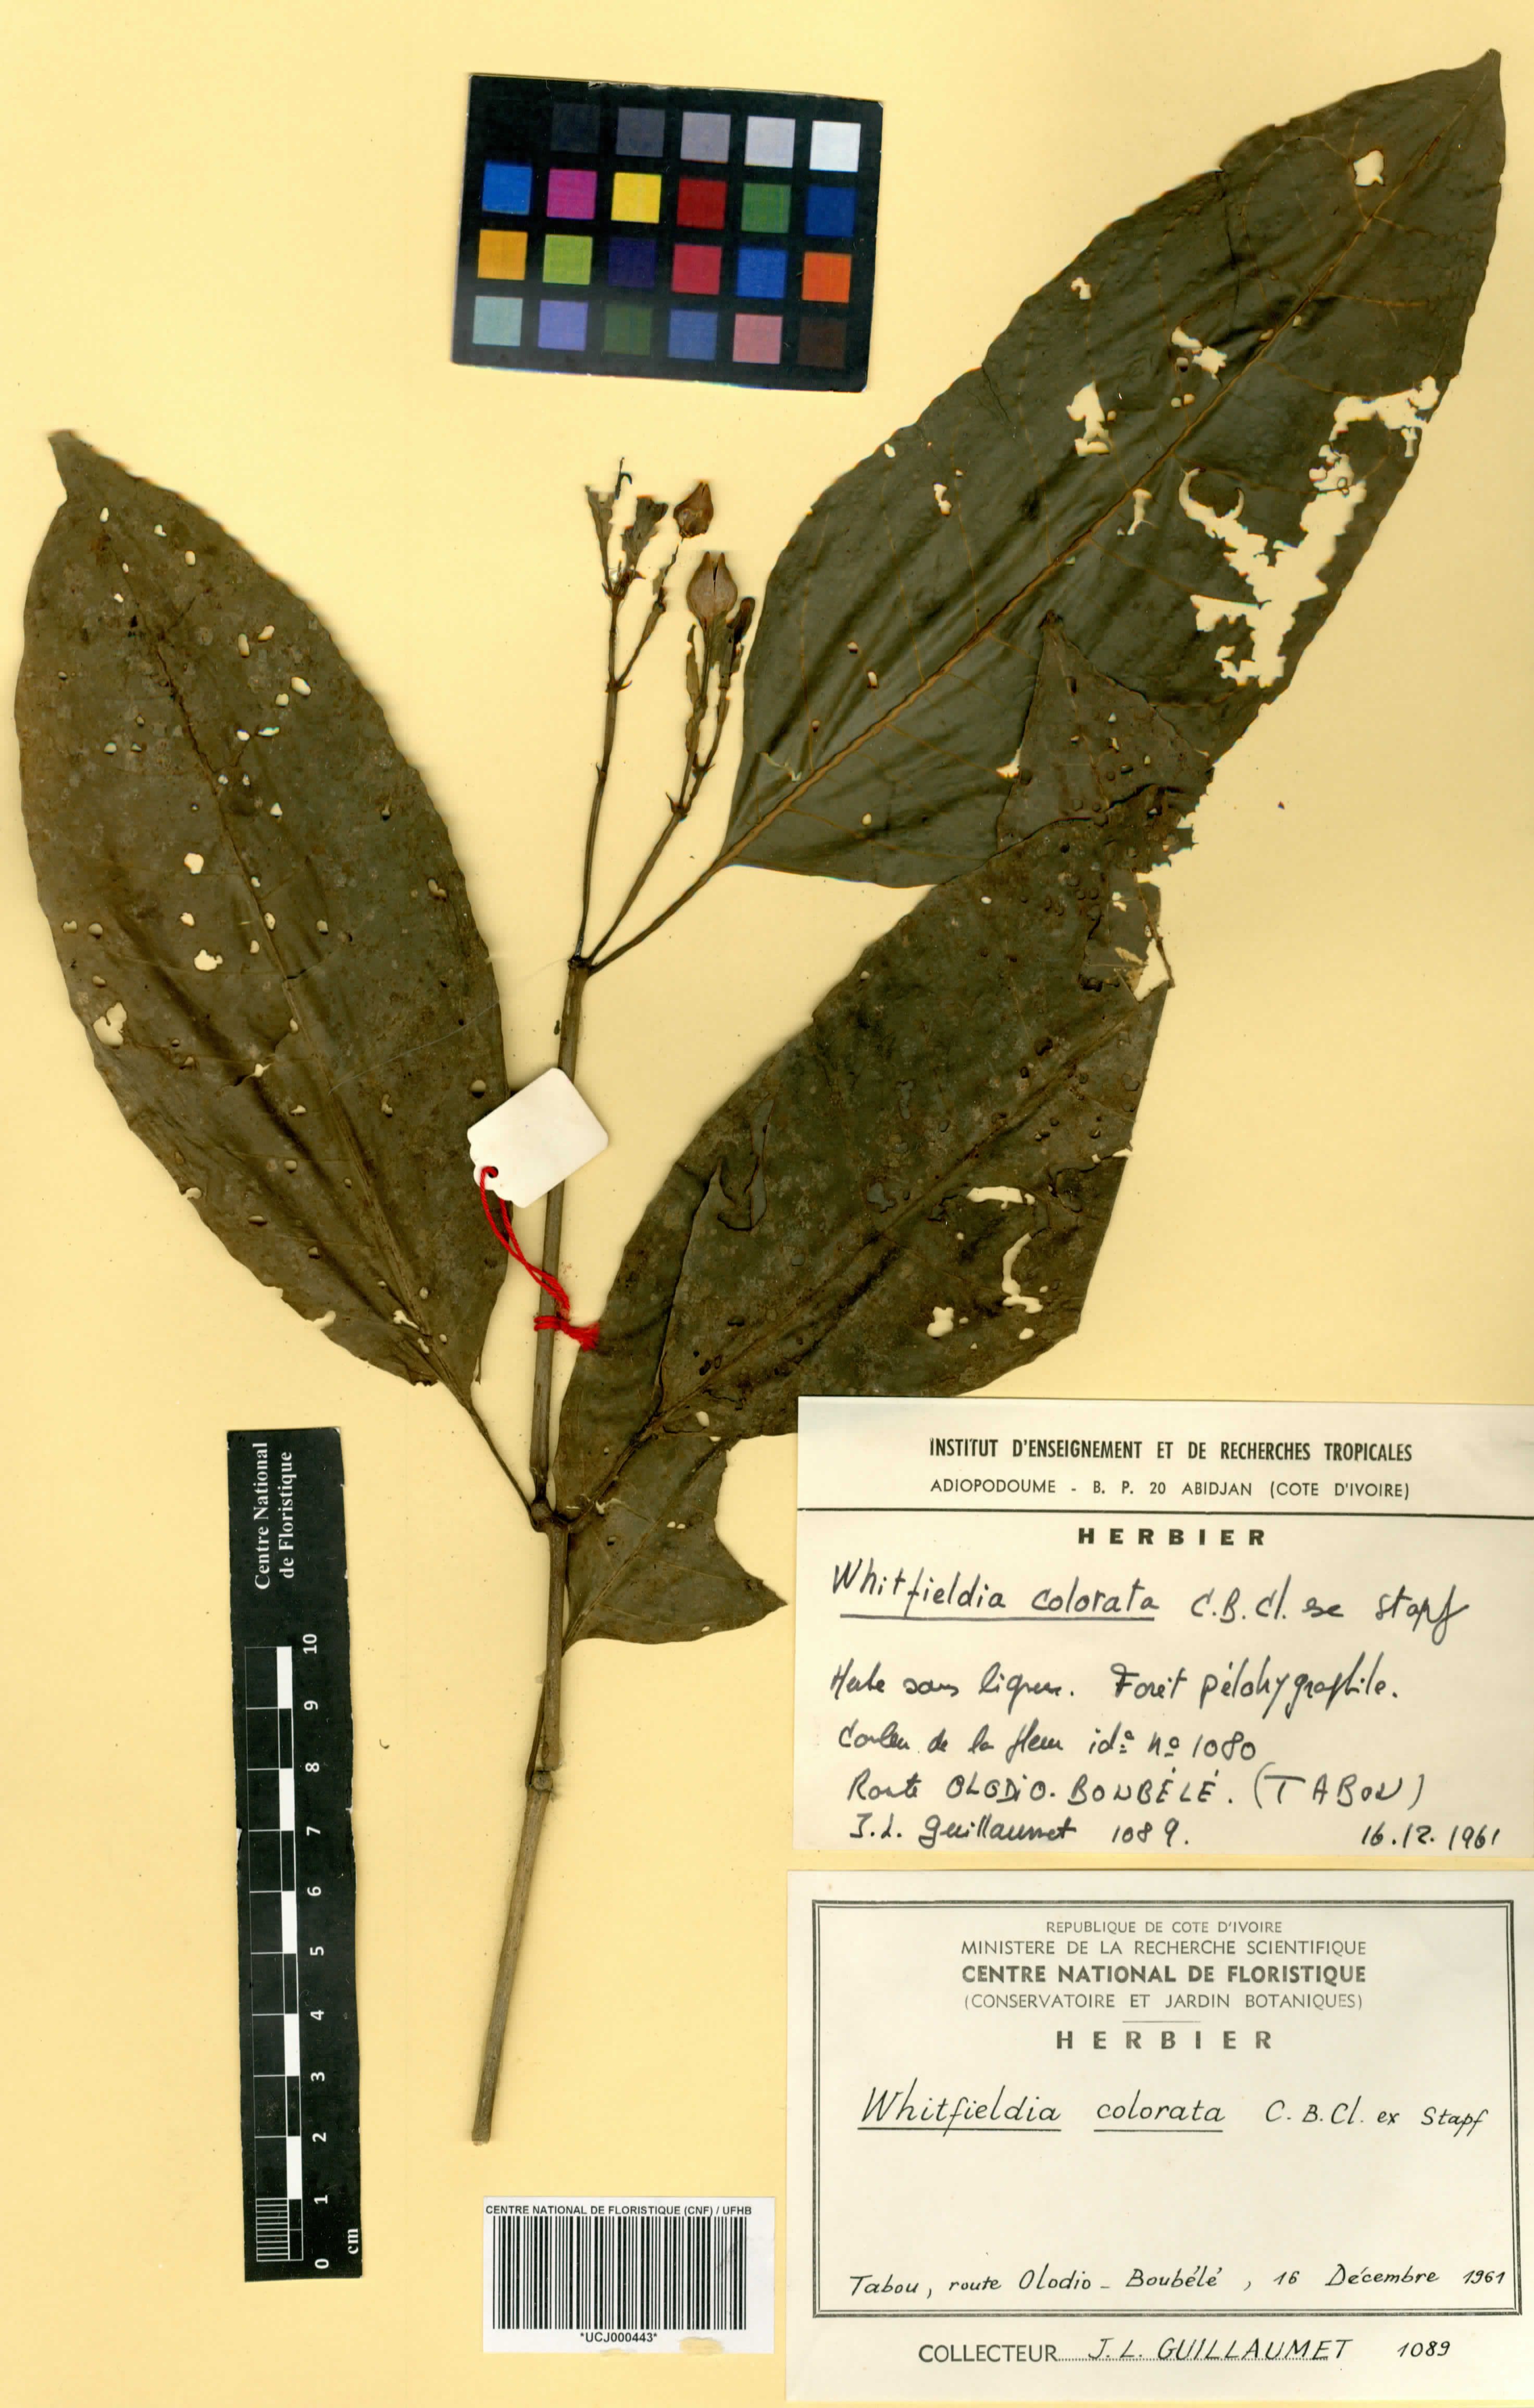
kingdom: Plantae
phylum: Tracheophyta
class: Magnoliopsida
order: Lamiales
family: Acanthaceae
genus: Whitfieldia
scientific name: Whitfieldia colorata
